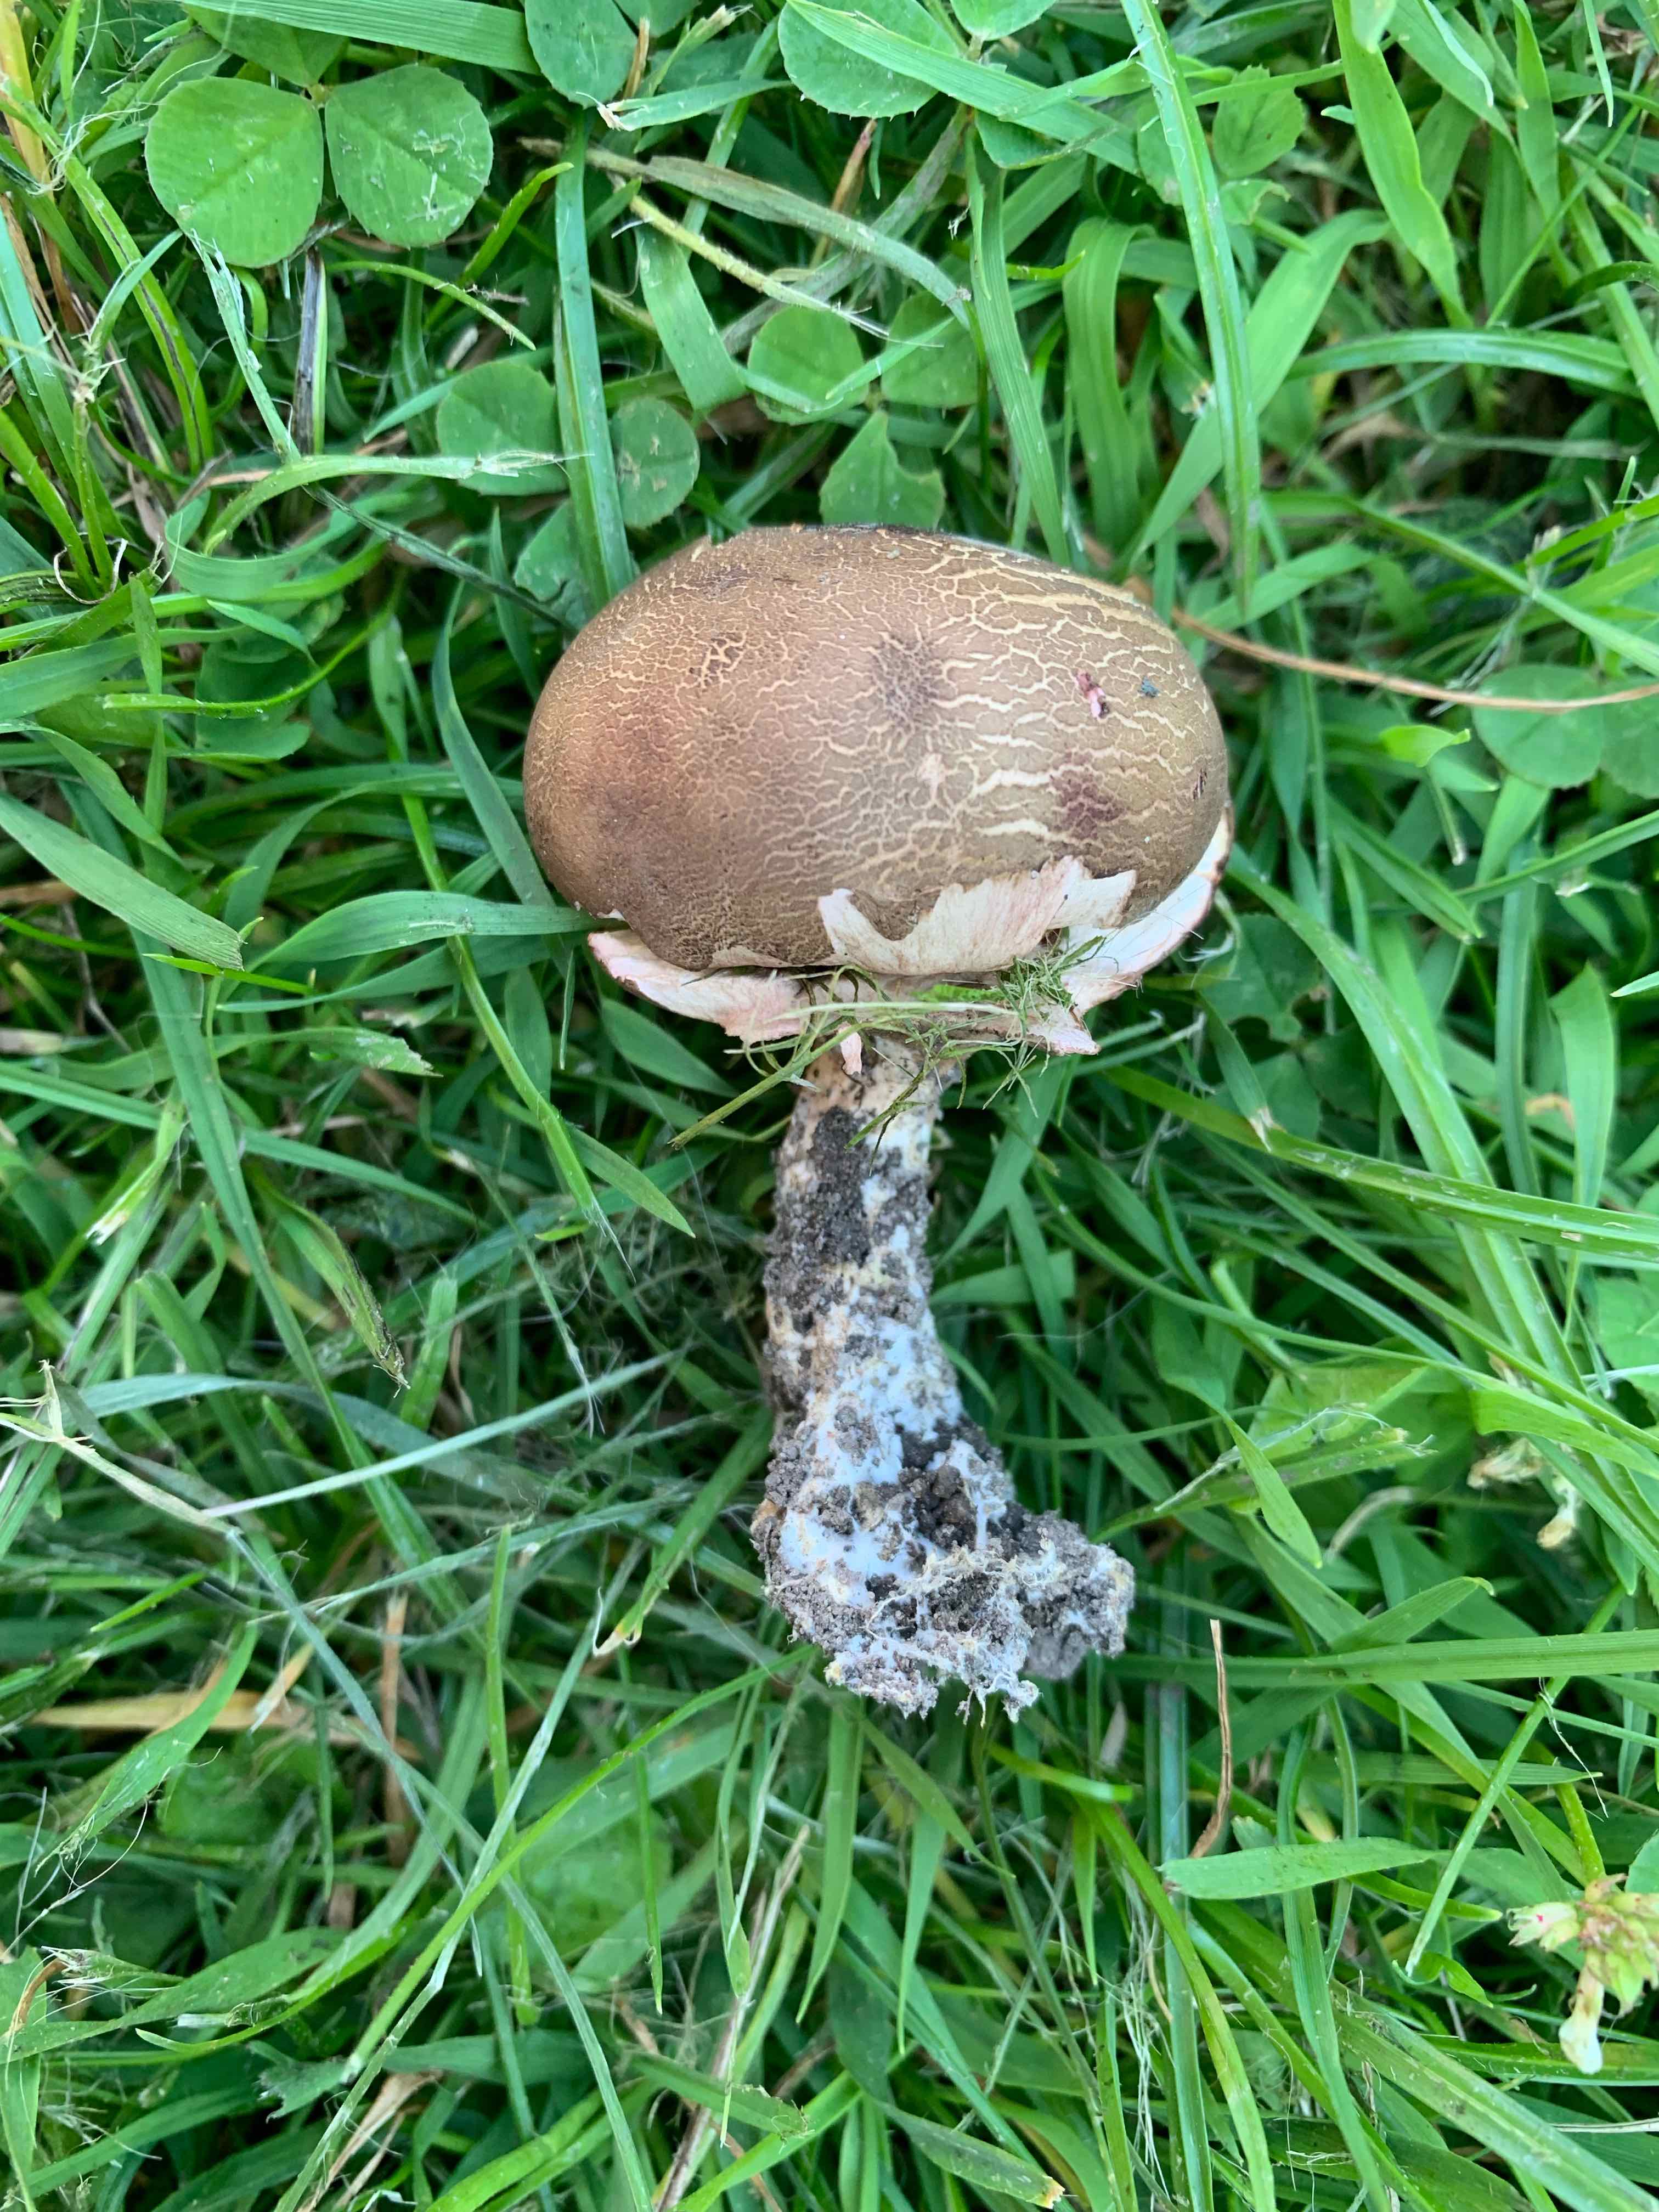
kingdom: Fungi
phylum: Basidiomycota
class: Agaricomycetes
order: Boletales
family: Sclerodermataceae
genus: Scleroderma
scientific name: Scleroderma verrucosum
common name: stilket bruskbold
